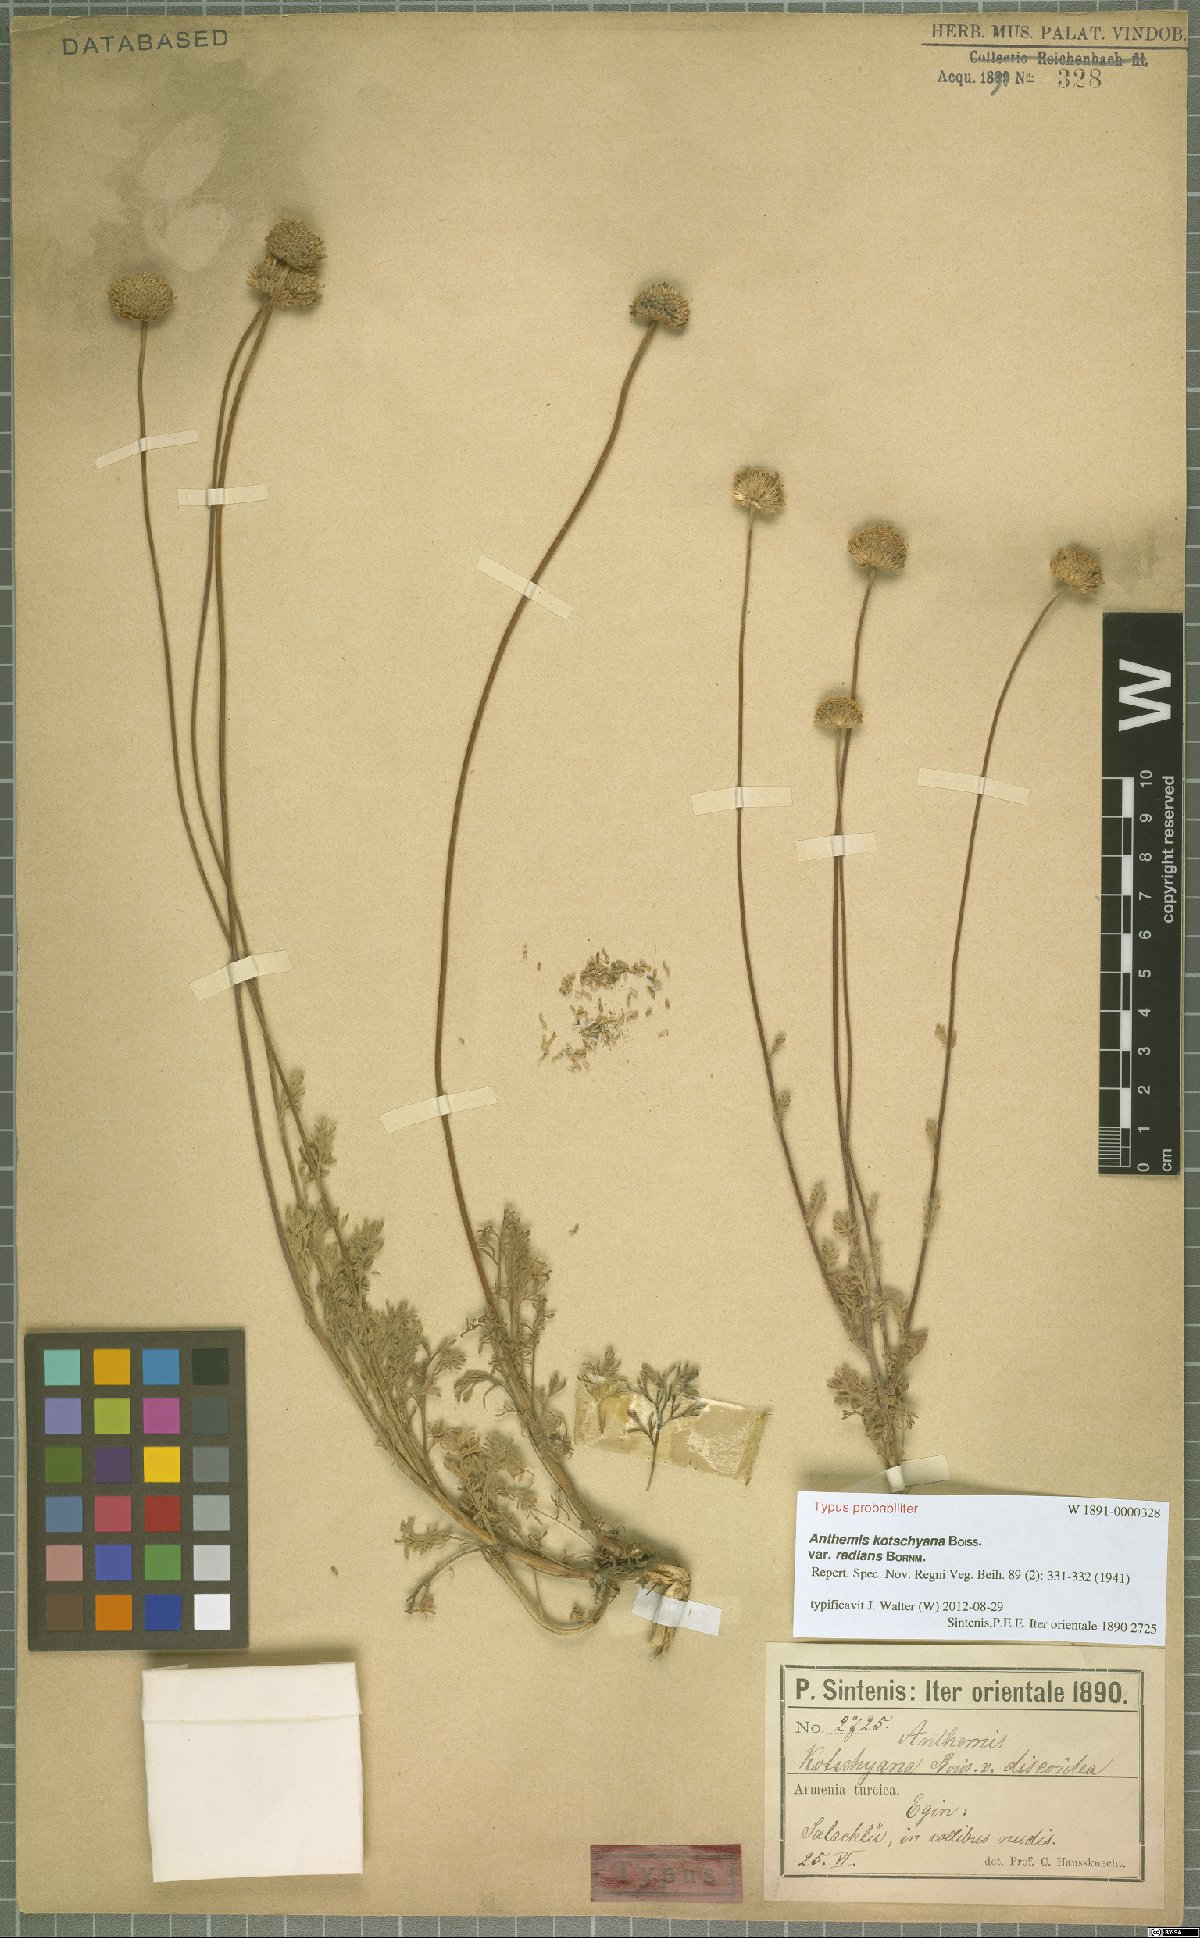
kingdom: Plantae
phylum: Tracheophyta
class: Magnoliopsida
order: Asterales
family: Asteraceae
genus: Anthemis
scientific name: Anthemis kotschyana
